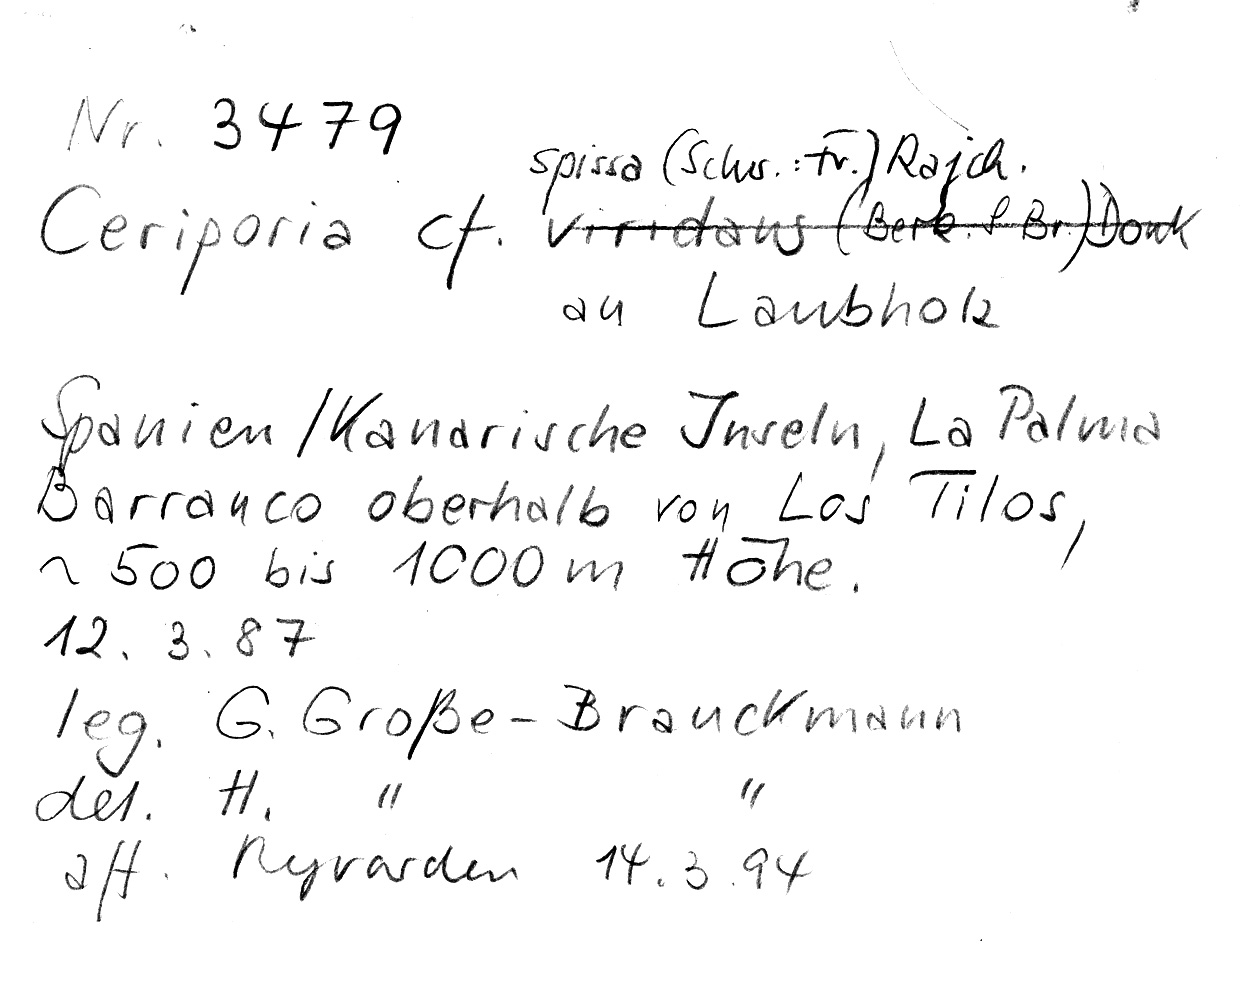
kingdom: Fungi
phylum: Basidiomycota
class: Agaricomycetes
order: Polyporales
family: Irpicaceae
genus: Ceriporia
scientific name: Ceriporia spissa
